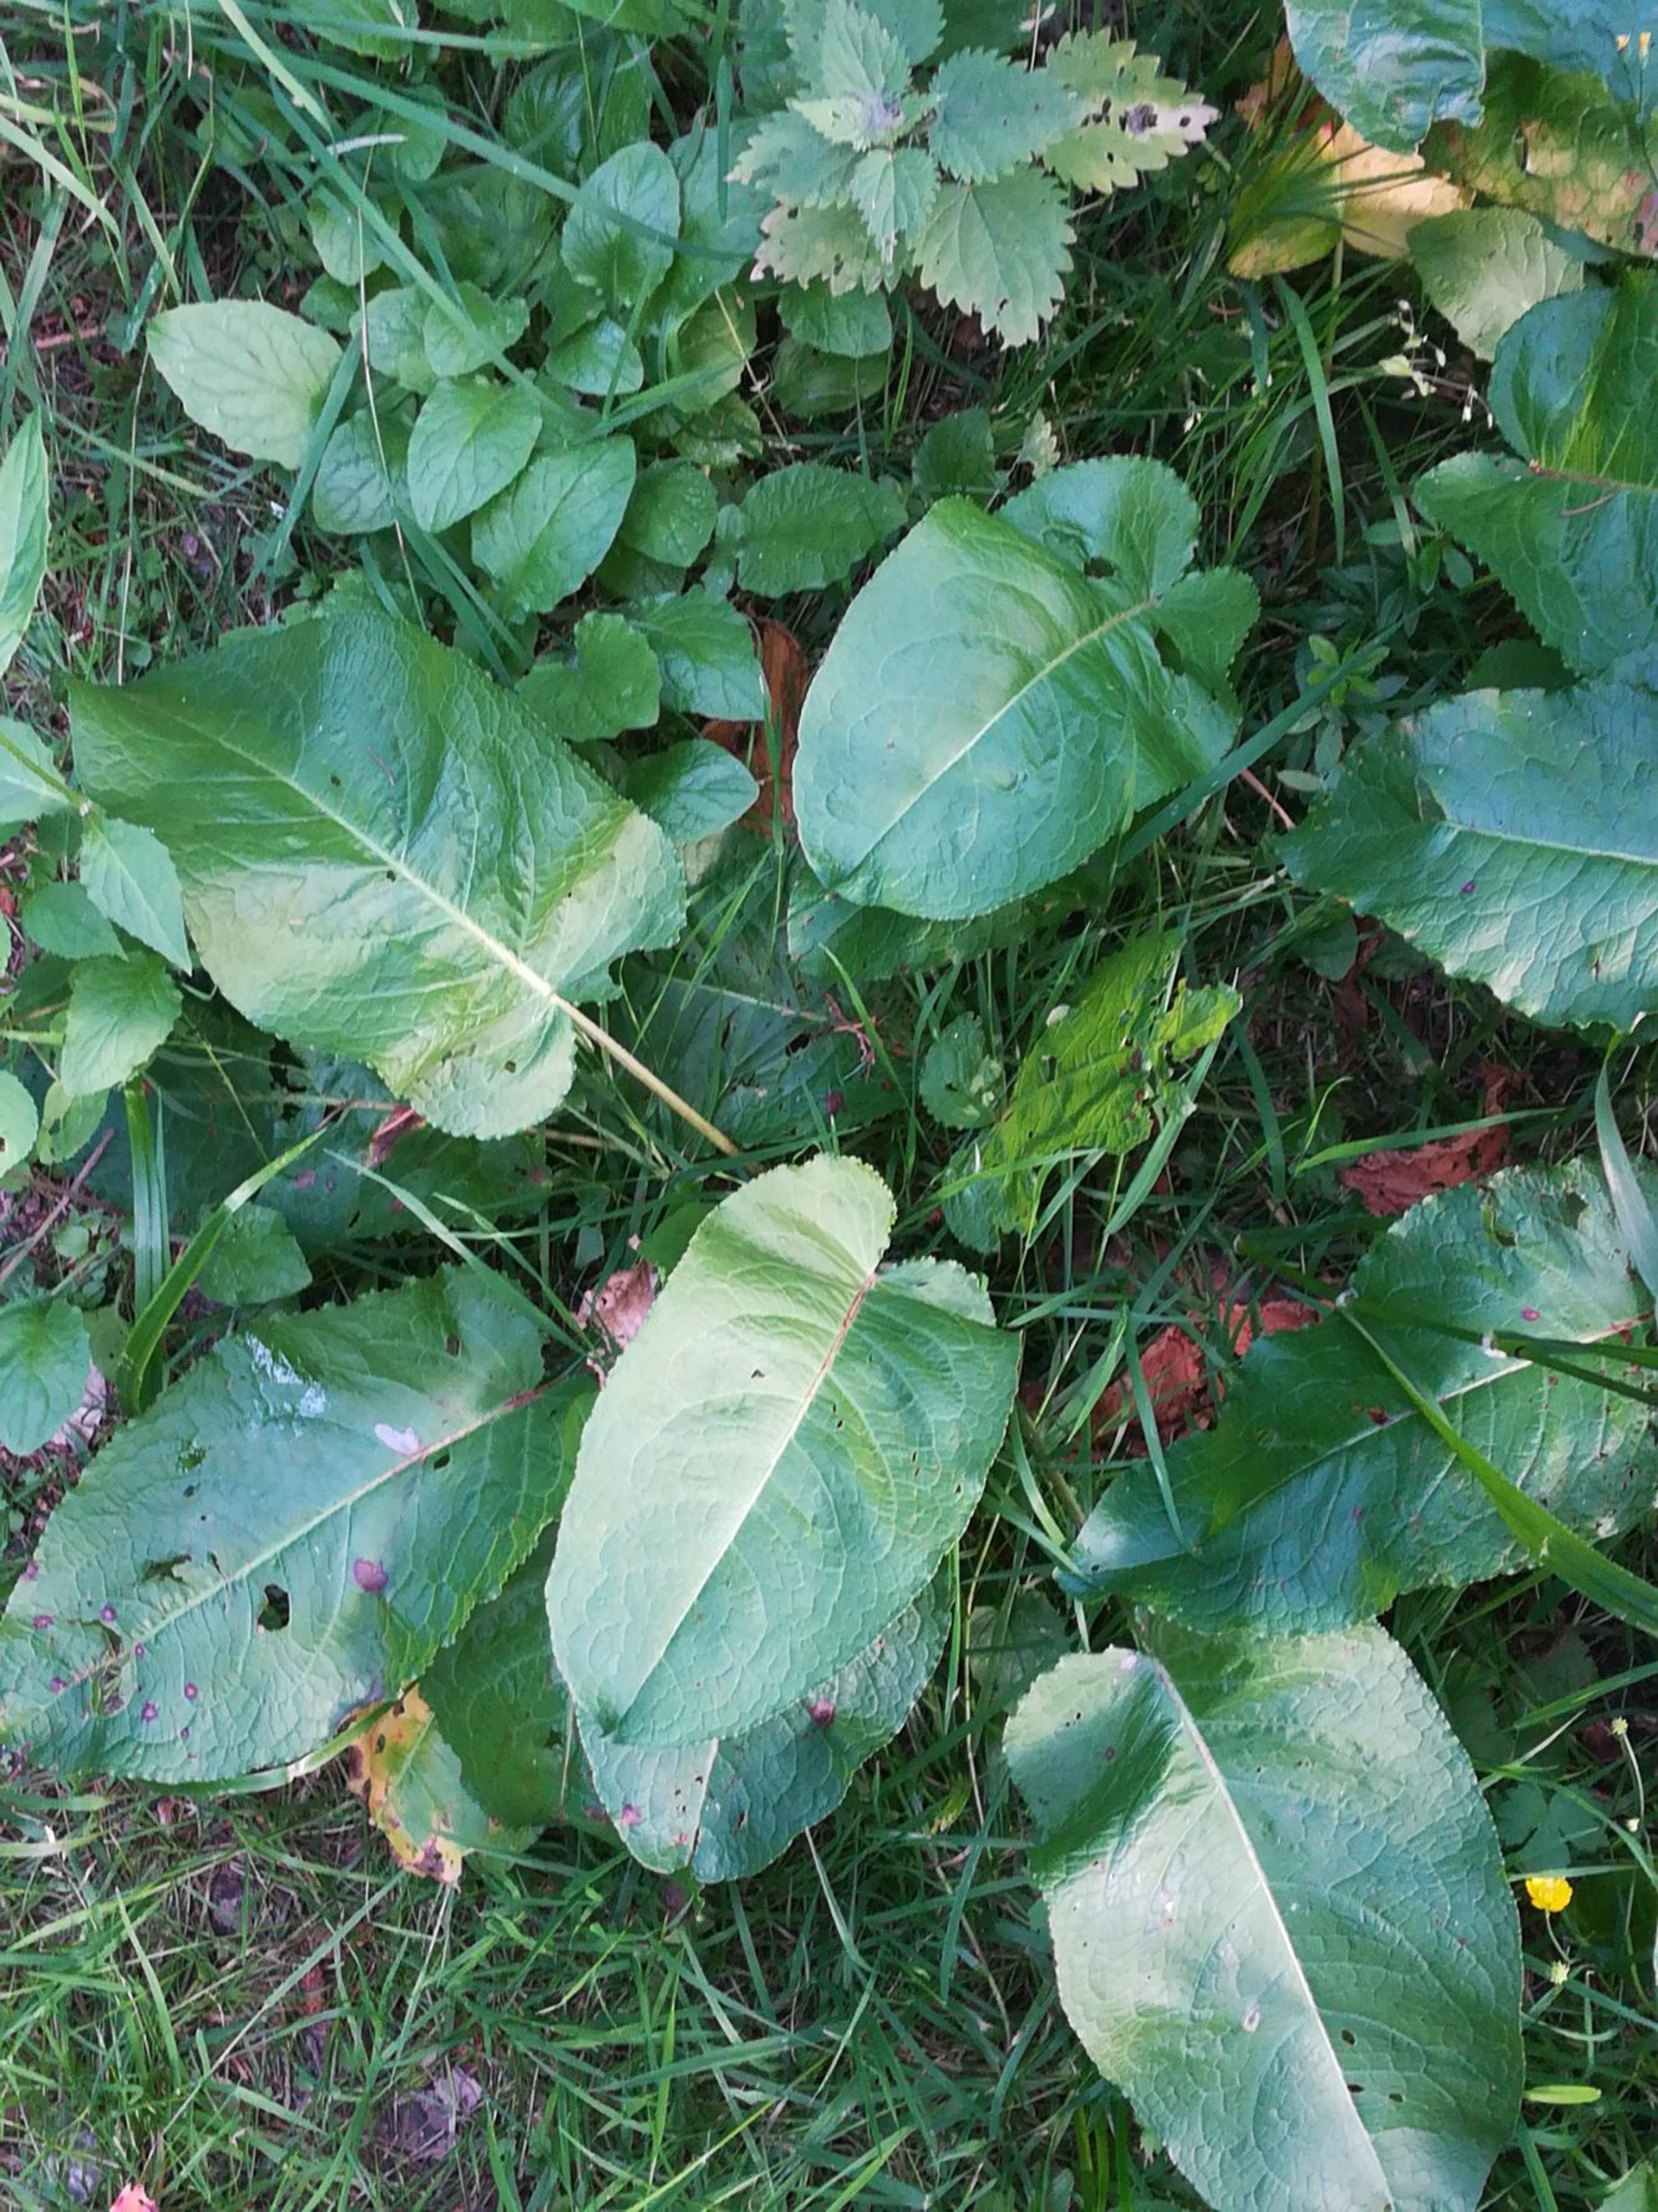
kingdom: Plantae
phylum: Tracheophyta
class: Magnoliopsida
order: Caryophyllales
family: Polygonaceae
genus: Rumex
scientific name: Rumex obtusifolius
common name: Butbladet skræppe
